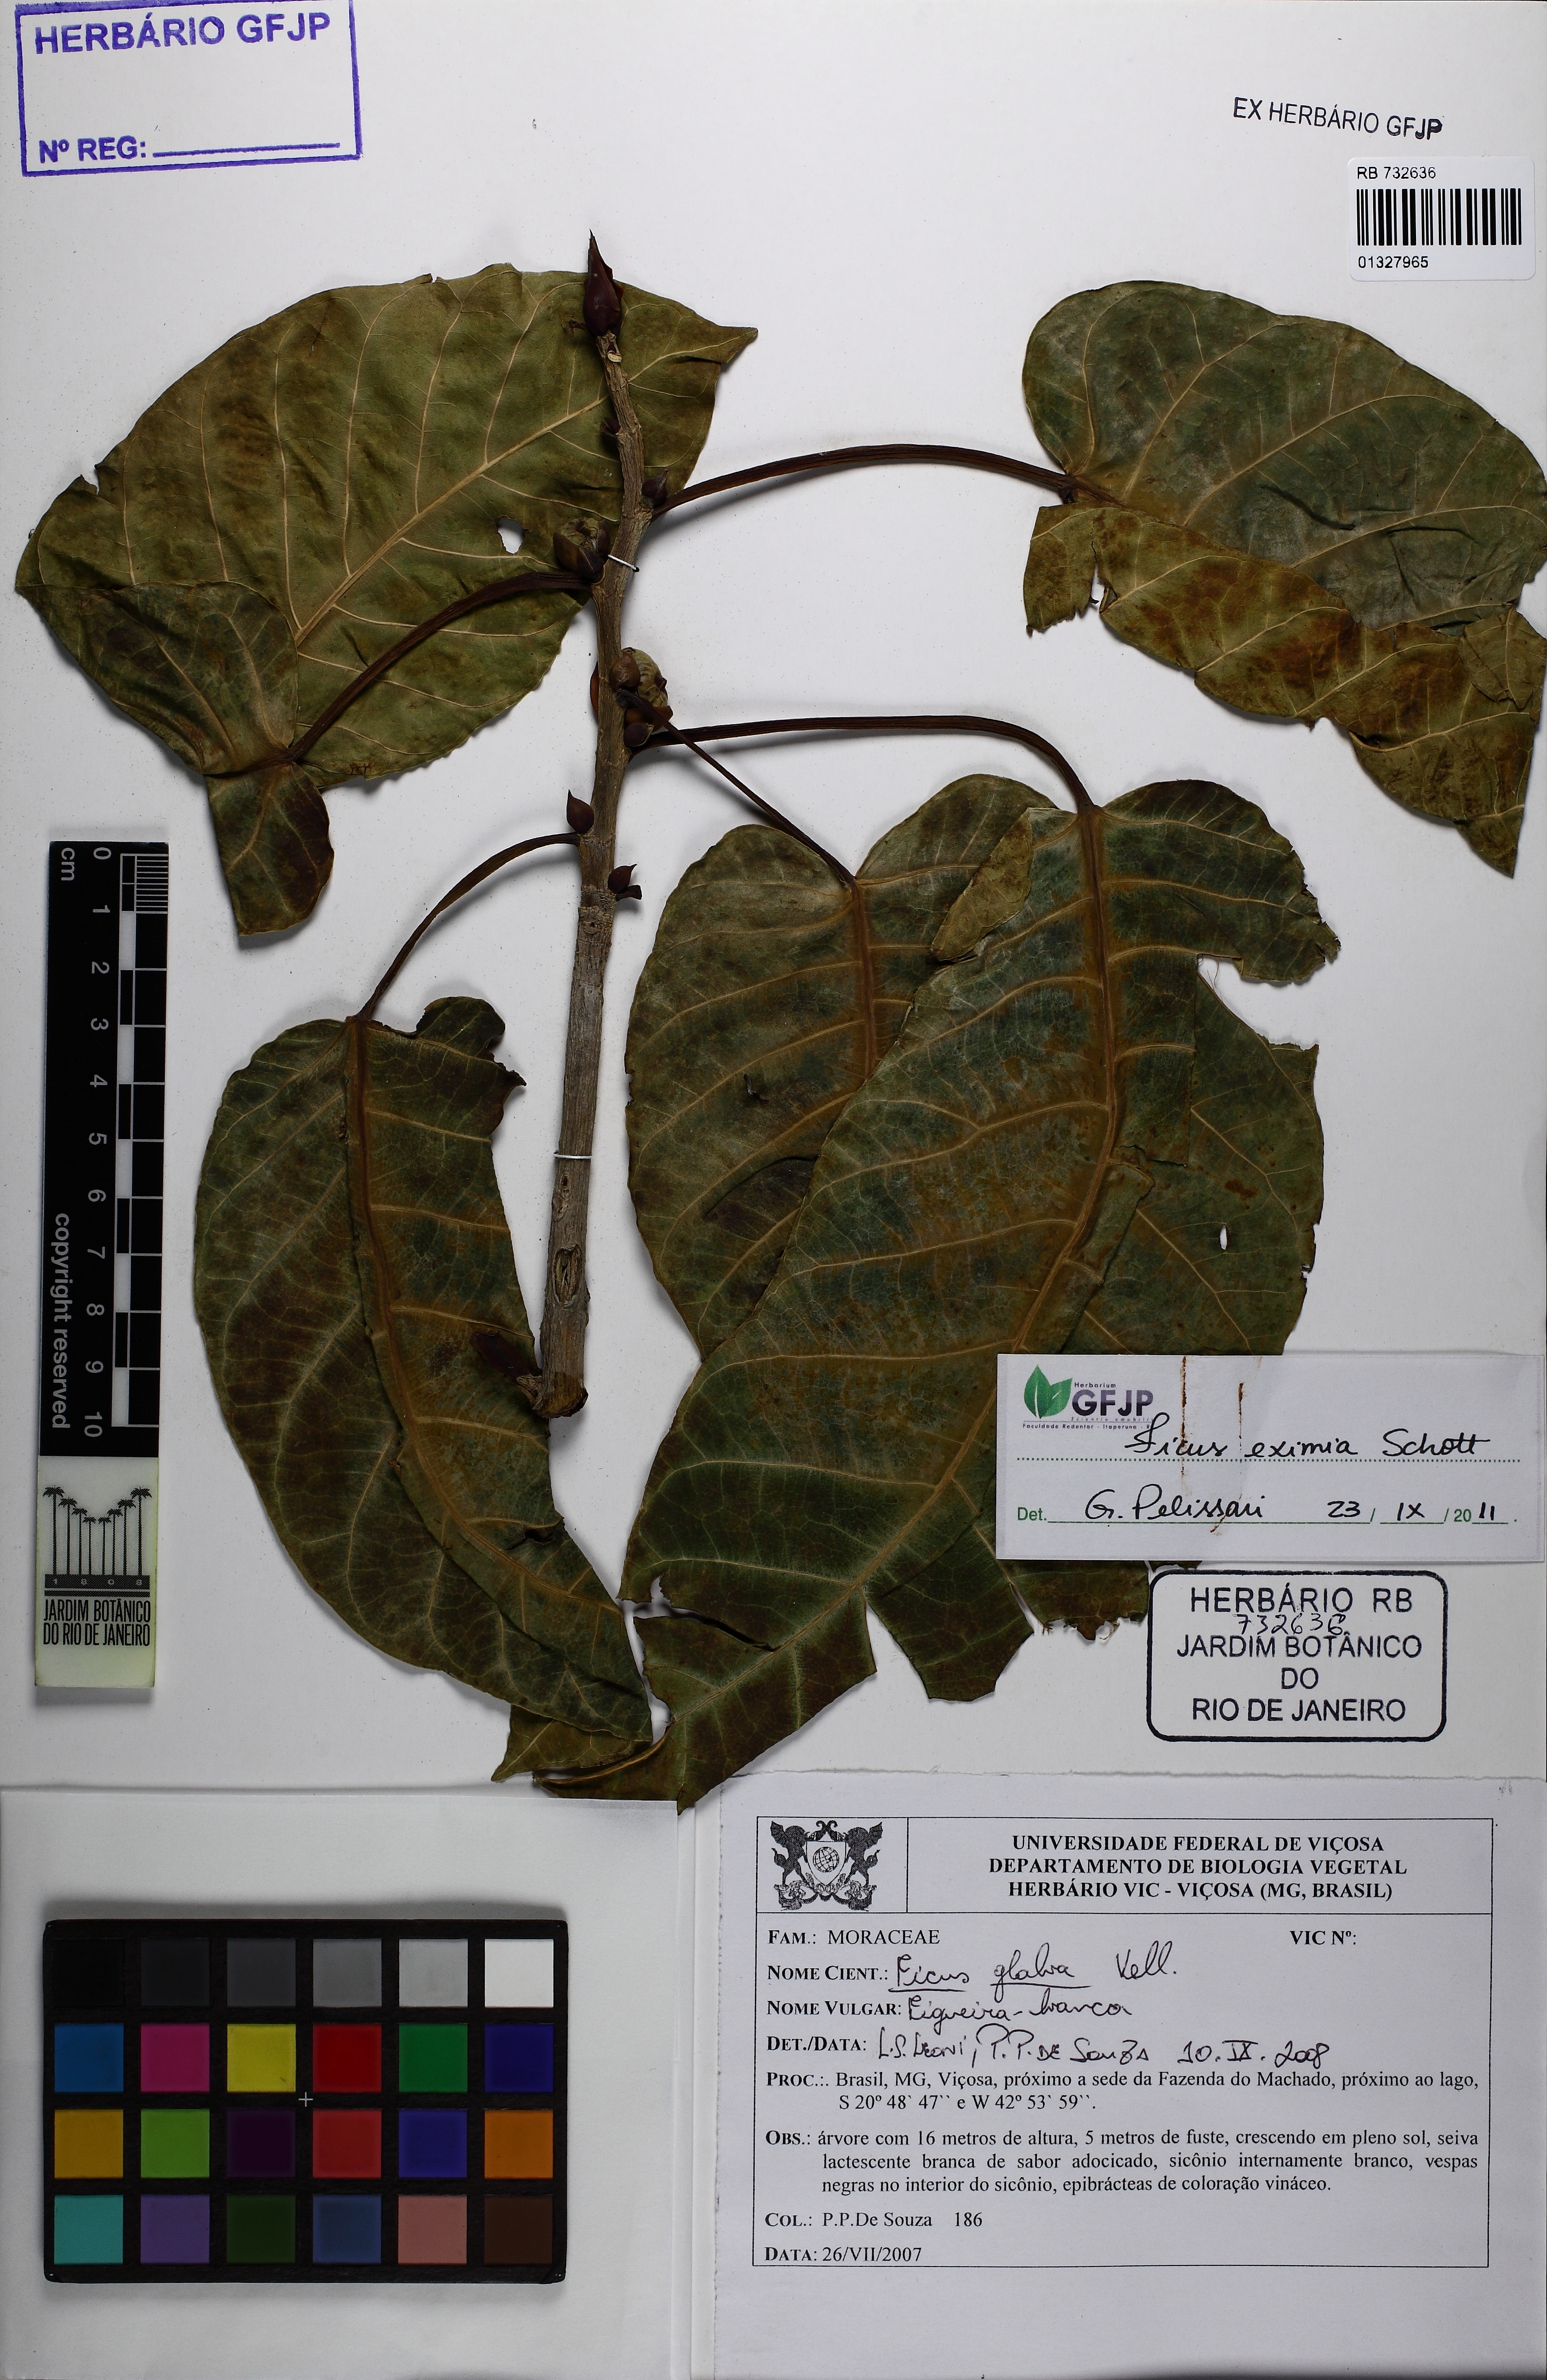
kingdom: Plantae
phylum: Tracheophyta
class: Magnoliopsida
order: Rosales
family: Moraceae
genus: Ficus
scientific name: Ficus eximia
